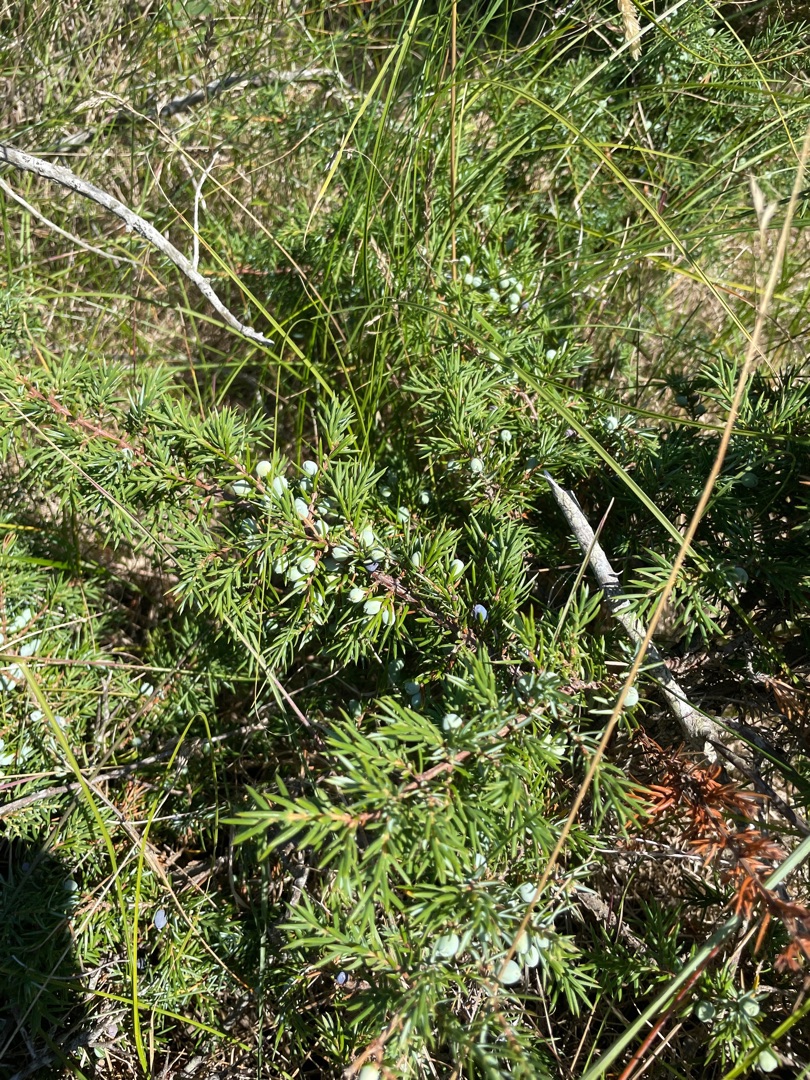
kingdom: Plantae
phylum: Tracheophyta
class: Pinopsida
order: Pinales
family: Cupressaceae
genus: Juniperus
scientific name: Juniperus communis
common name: Almindelig ene
